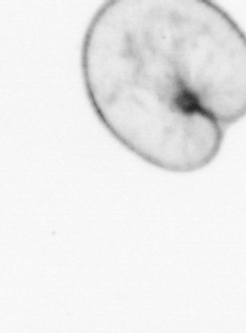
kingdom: Chromista
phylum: Myzozoa
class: Dinophyceae
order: Noctilucales
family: Noctilucaceae
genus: Noctiluca
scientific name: Noctiluca scintillans
